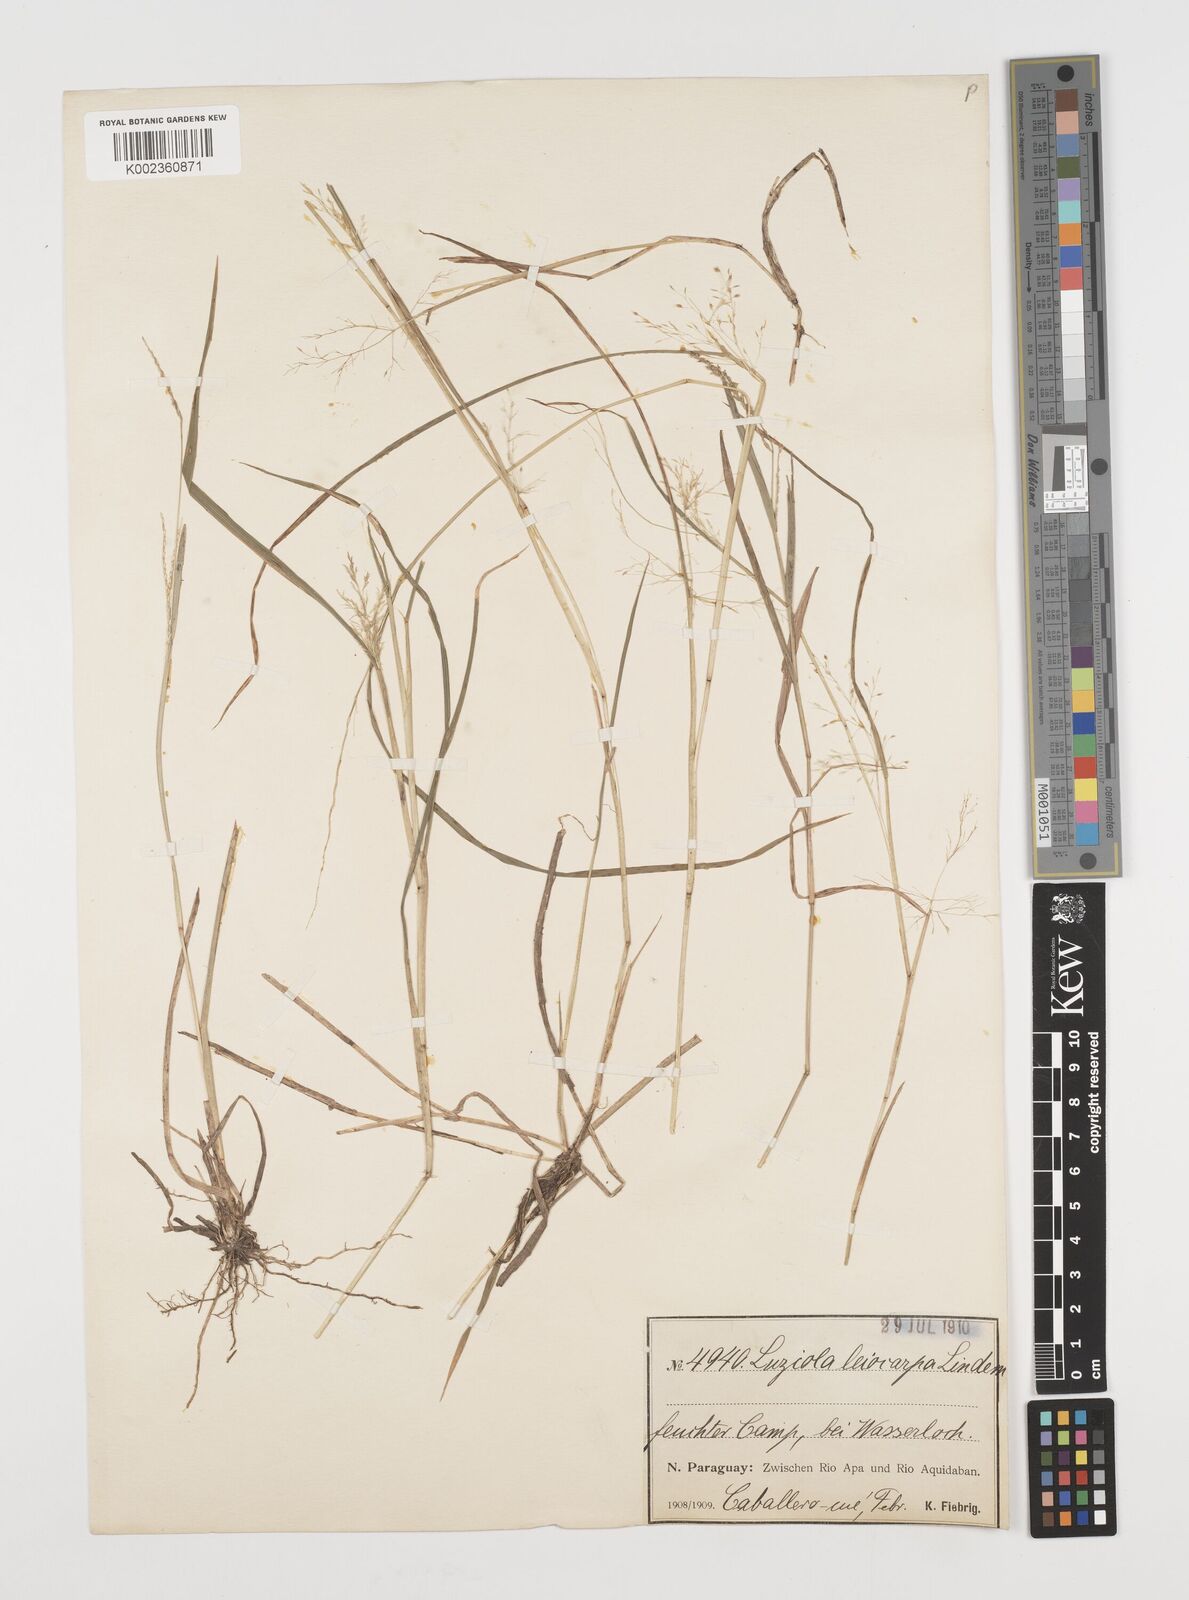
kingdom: Plantae
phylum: Tracheophyta
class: Liliopsida
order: Poales
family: Poaceae
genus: Luziola
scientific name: Luziola peruviana
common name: Peruvian watergrass
